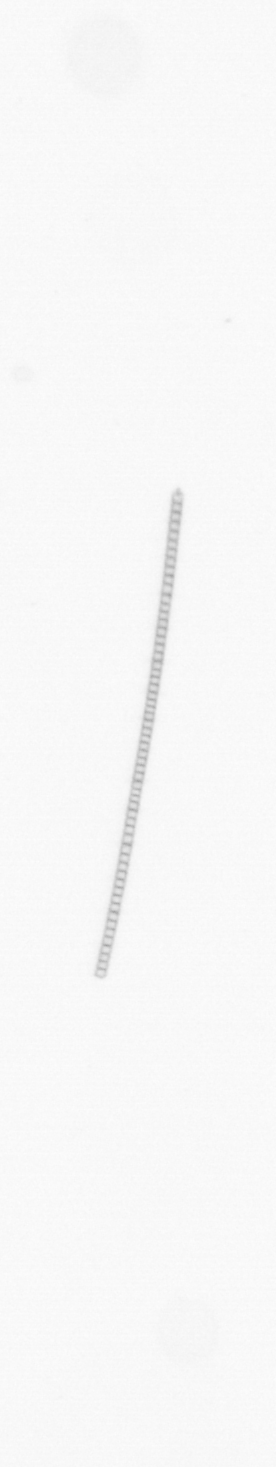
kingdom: Chromista
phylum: Ochrophyta
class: Bacillariophyceae
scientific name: Bacillariophyceae
